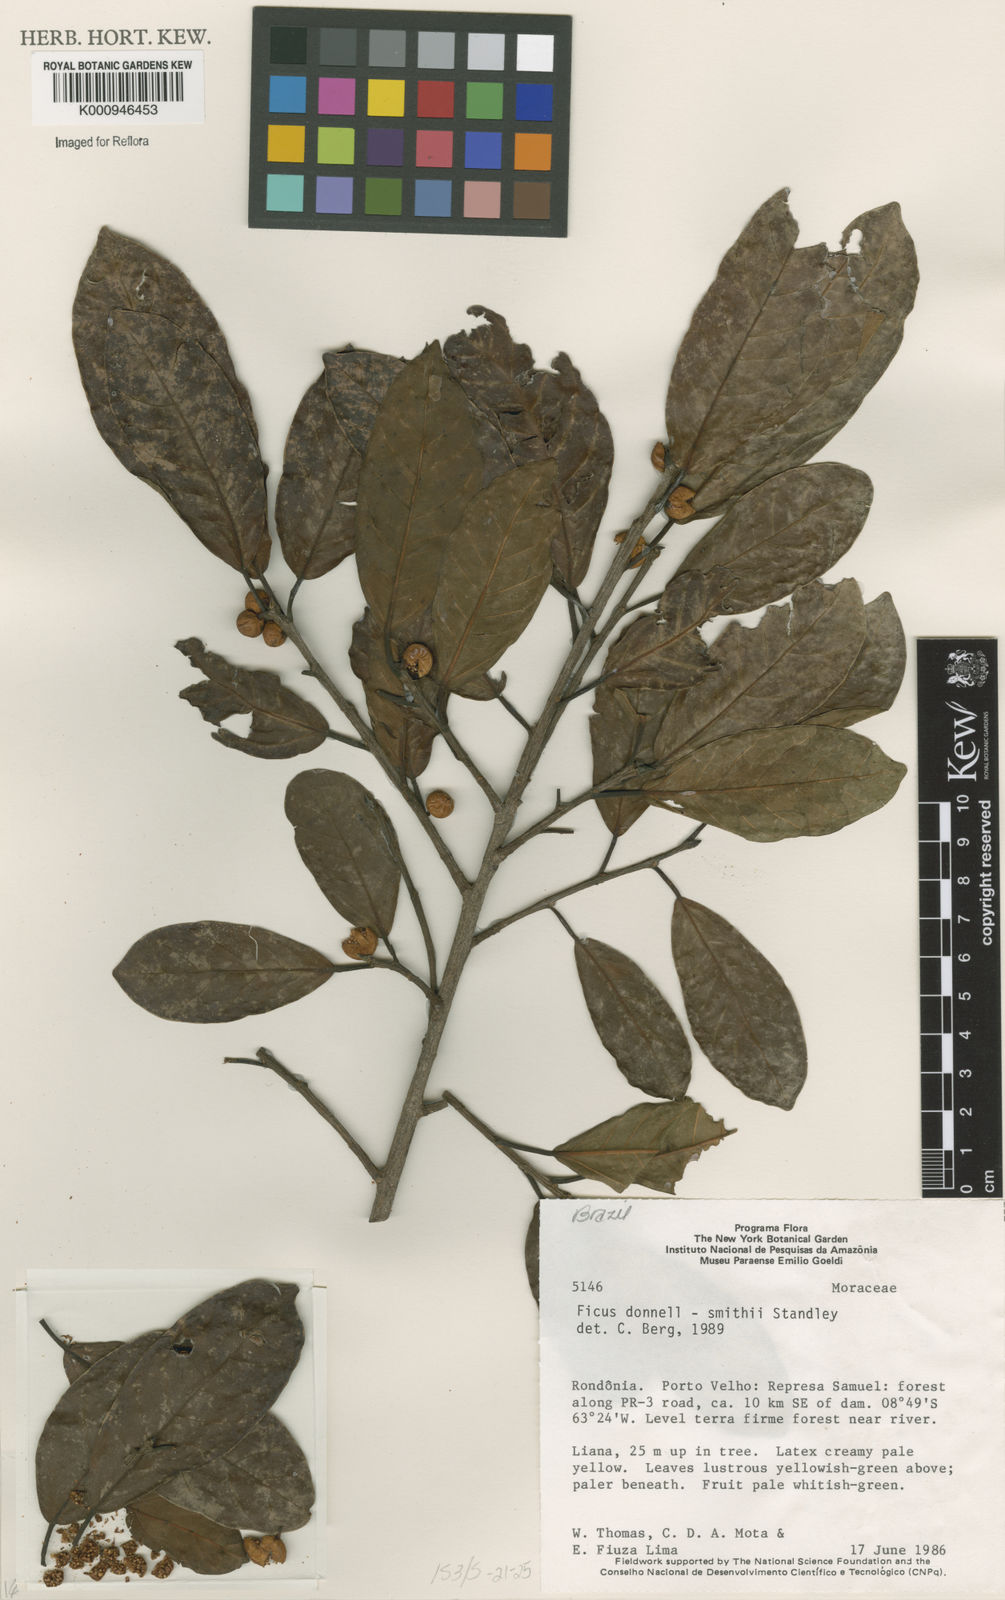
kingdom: Plantae
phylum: Tracheophyta
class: Magnoliopsida
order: Rosales
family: Moraceae
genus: Ficus
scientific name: Ficus donnell-smithii
